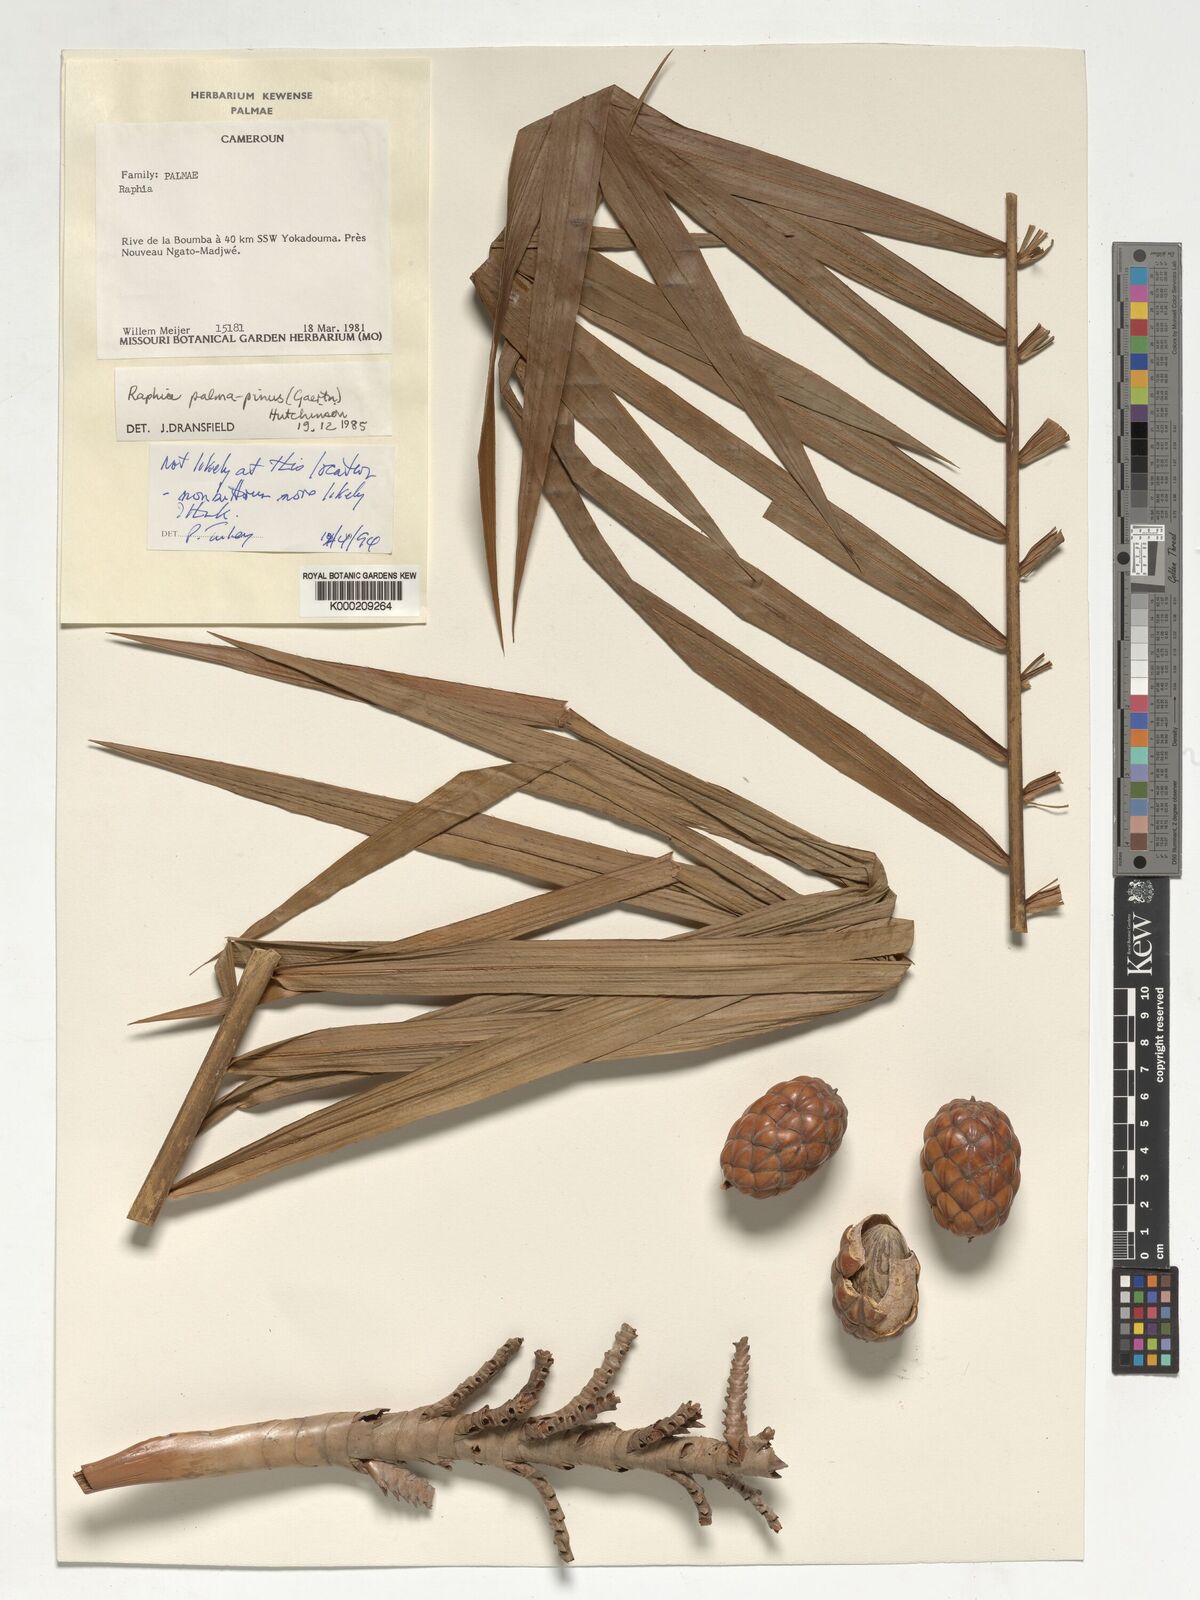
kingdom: Plantae
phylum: Tracheophyta
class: Liliopsida
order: Arecales
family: Arecaceae
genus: Raphia
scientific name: Raphia monbuttorum
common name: Raphia palm
